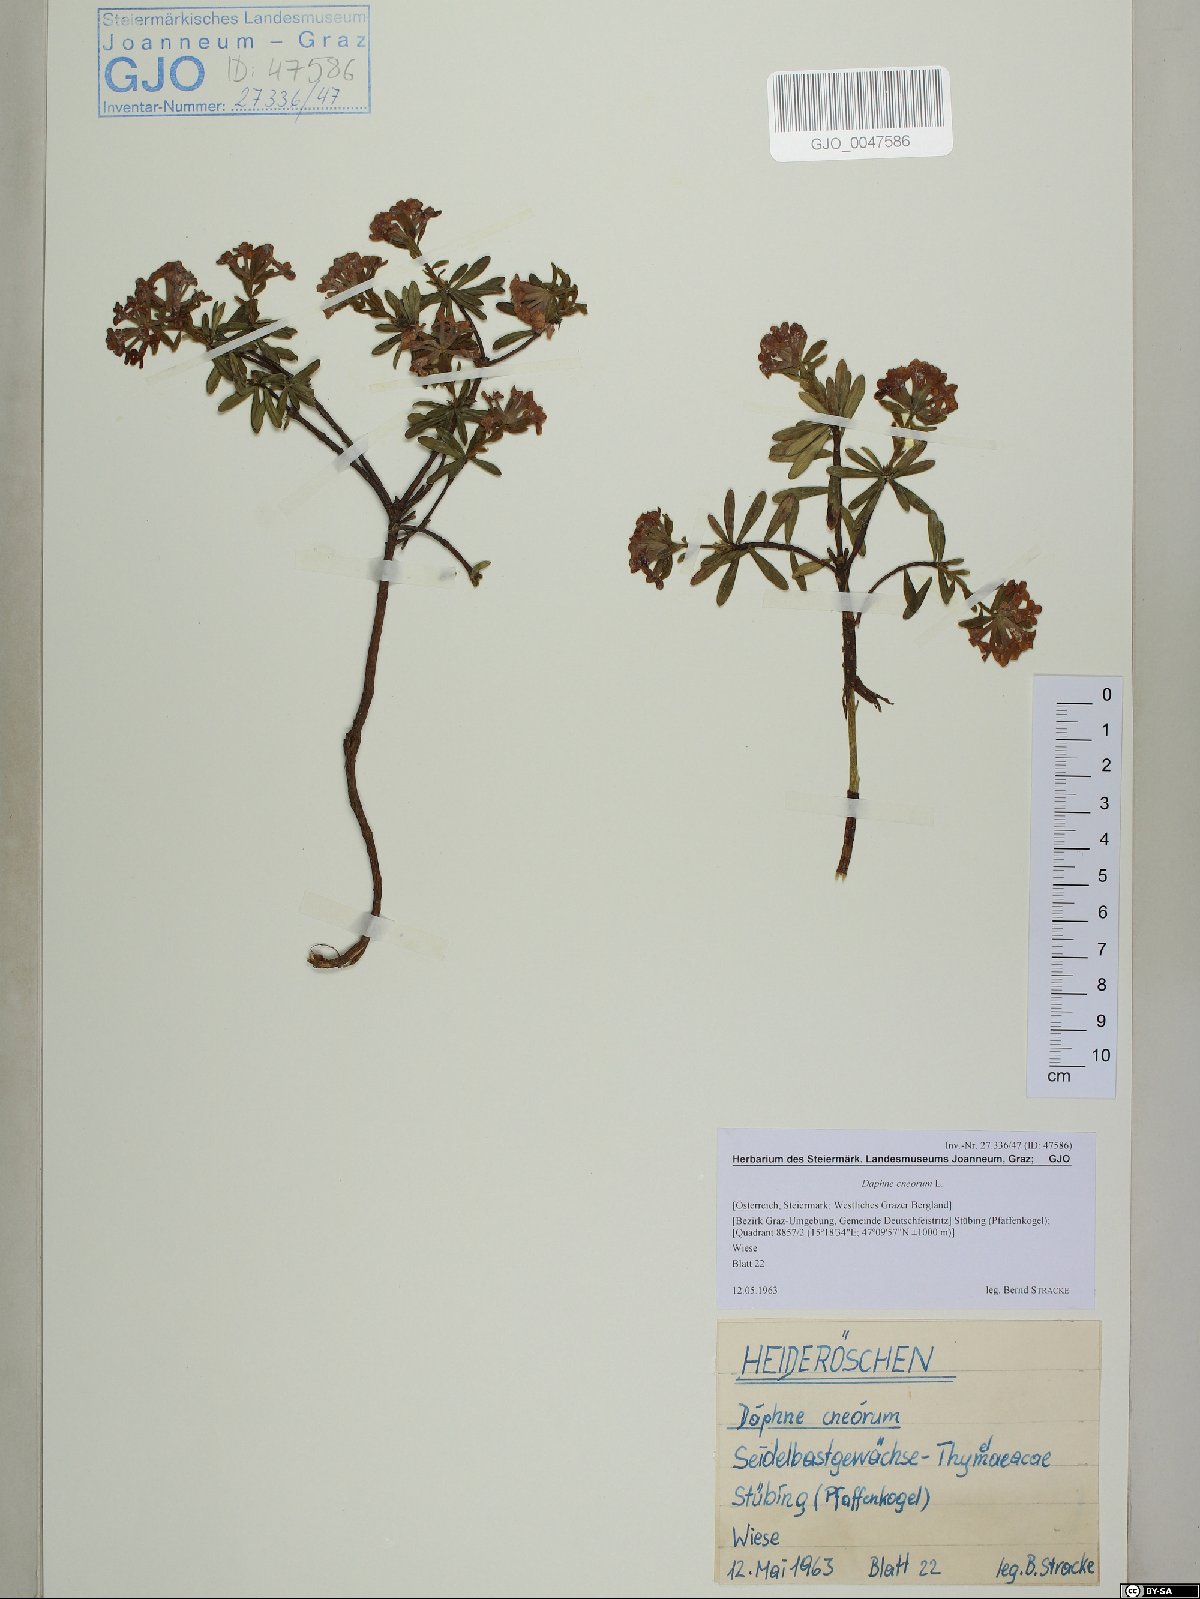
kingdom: Plantae
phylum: Tracheophyta
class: Magnoliopsida
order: Malvales
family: Thymelaeaceae
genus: Daphne
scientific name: Daphne cneorum
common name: Garland-flower
